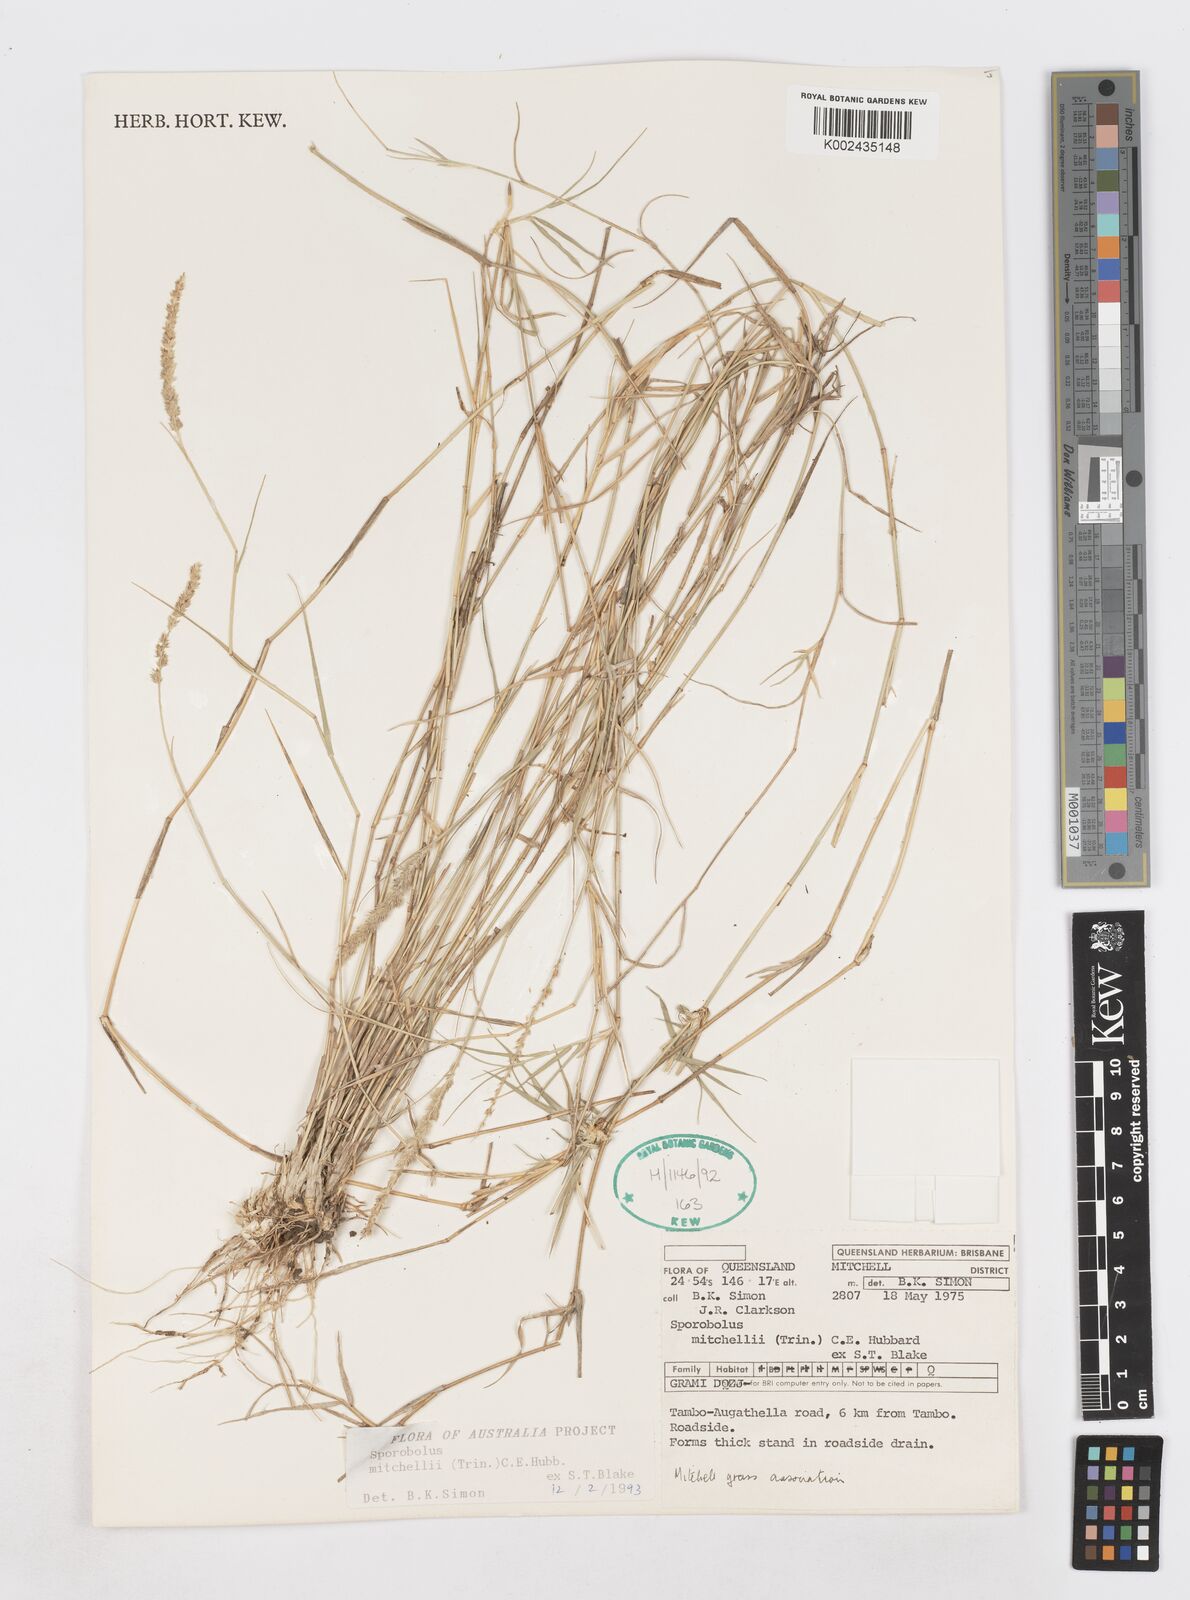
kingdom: Plantae
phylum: Tracheophyta
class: Liliopsida
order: Poales
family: Poaceae
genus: Sporobolus
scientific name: Sporobolus mitchellii
